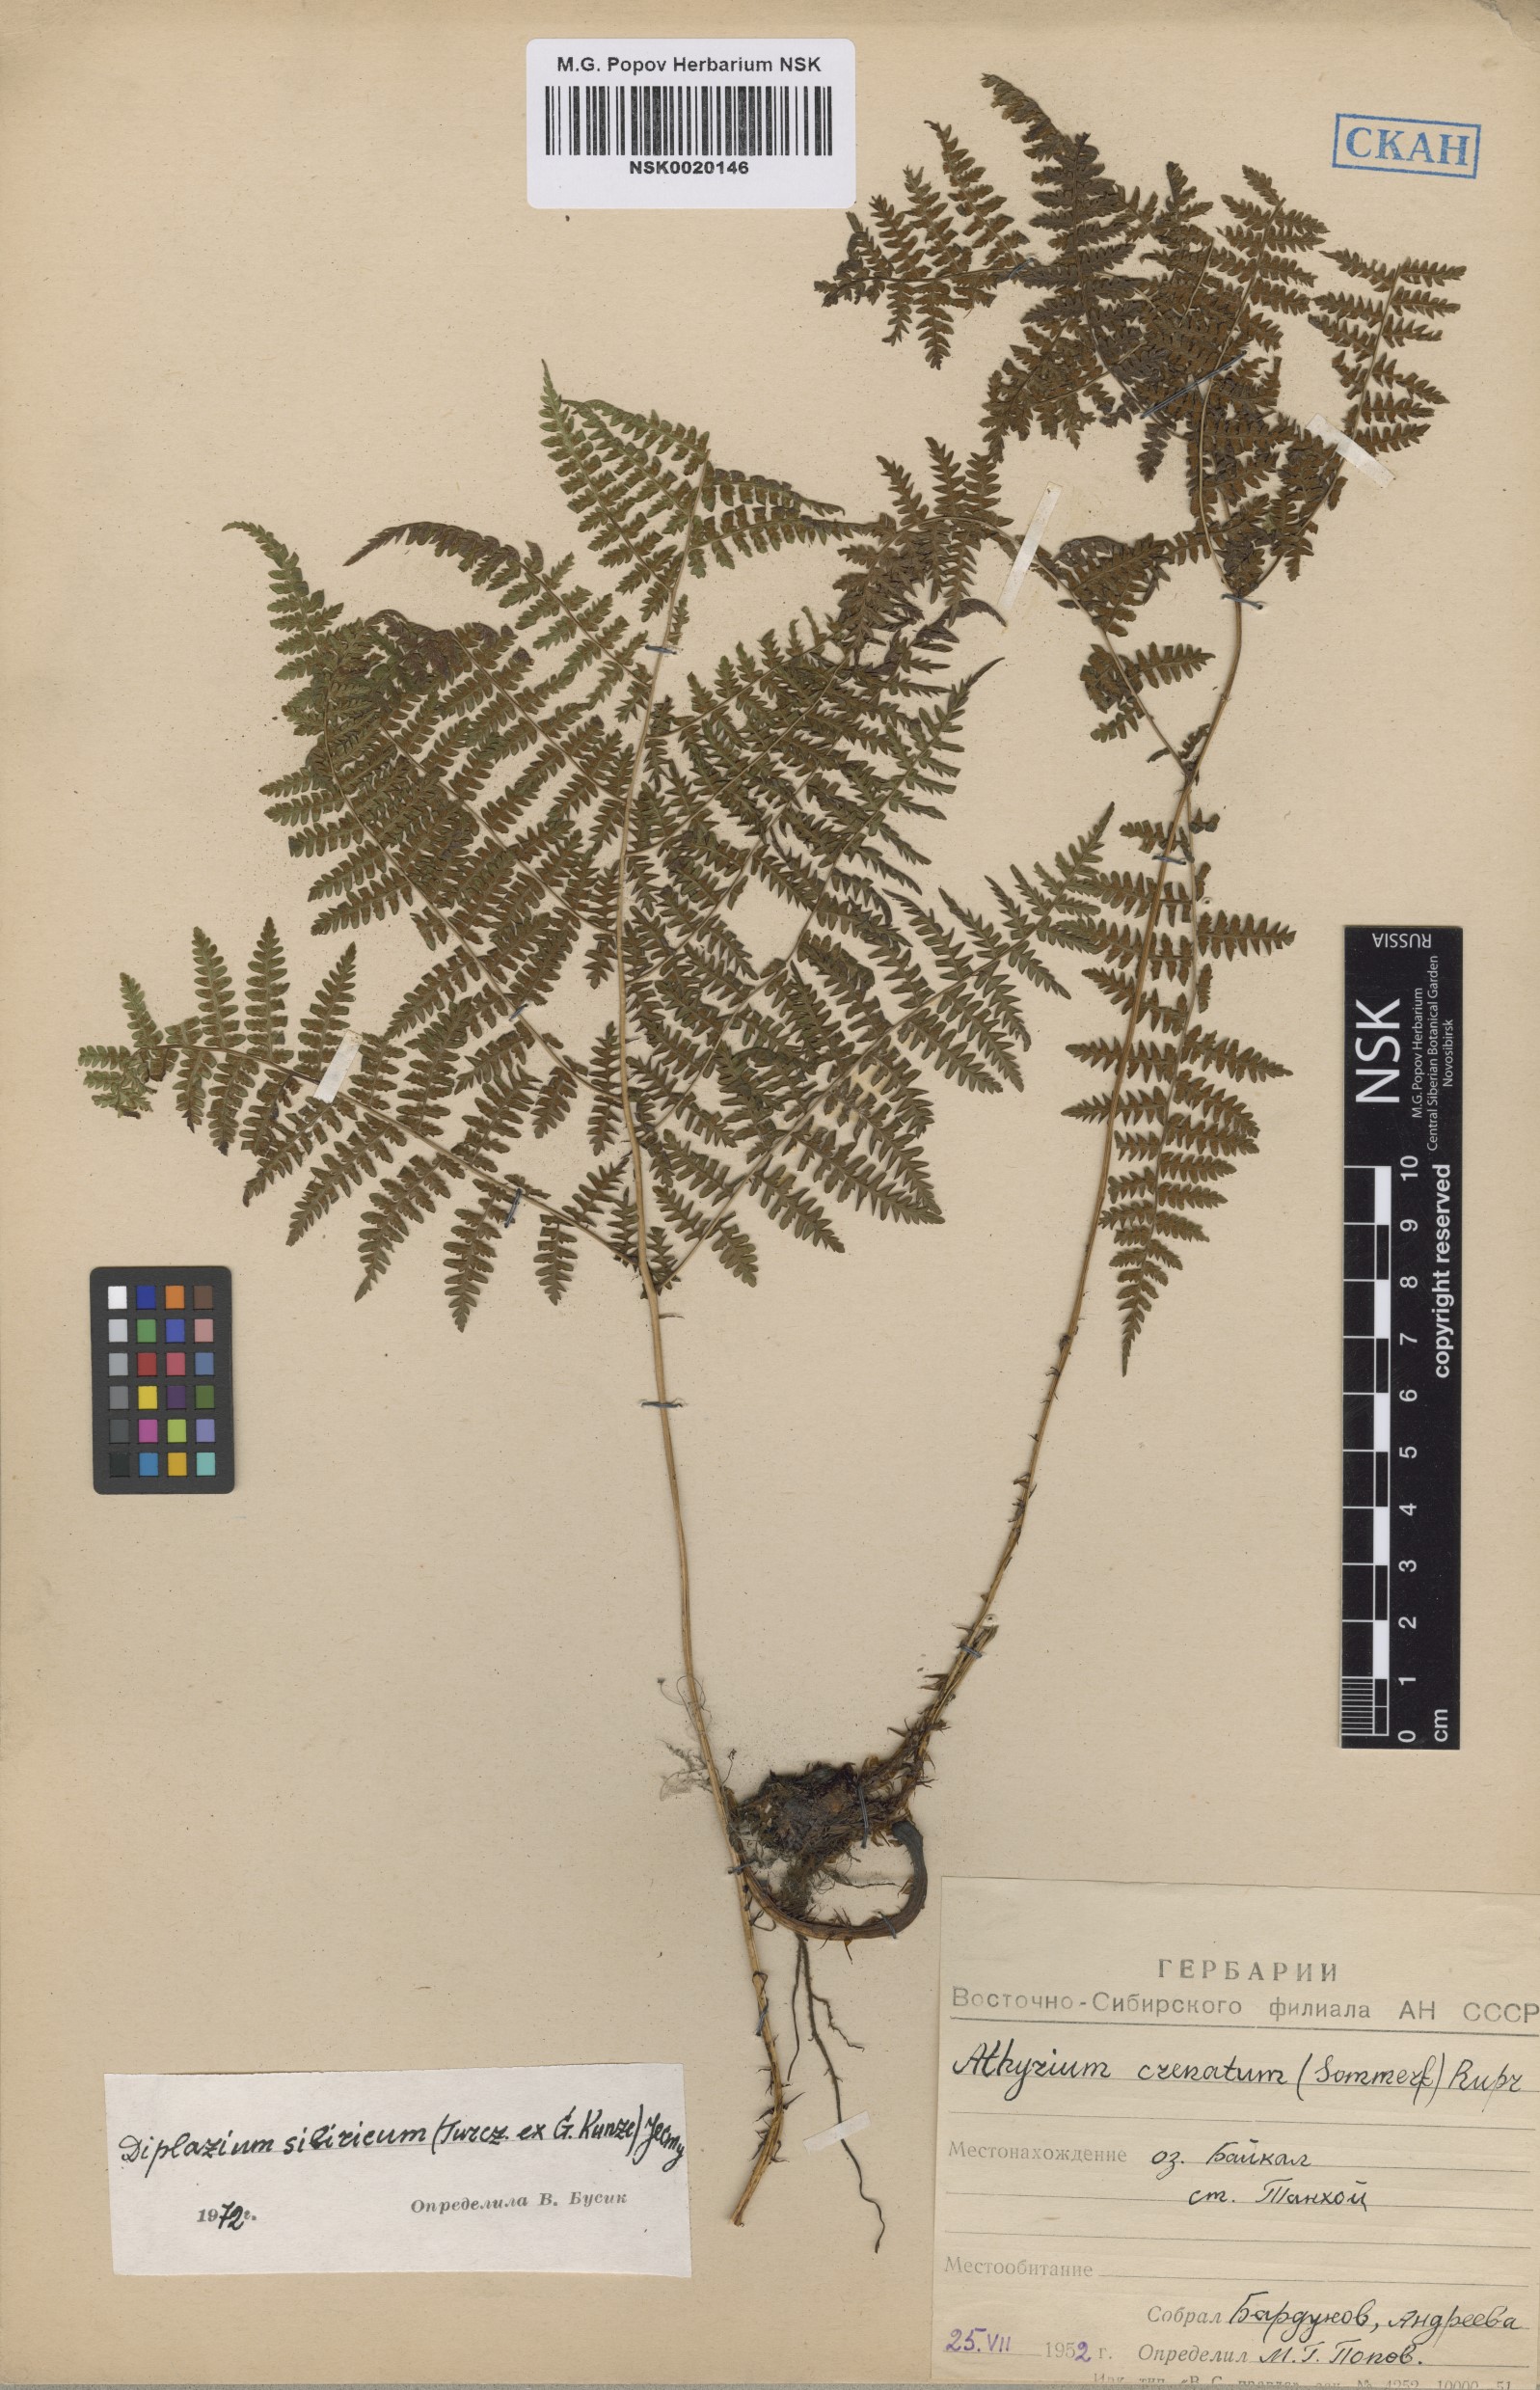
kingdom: Plantae
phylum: Tracheophyta
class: Polypodiopsida
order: Polypodiales
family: Athyriaceae
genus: Diplazium
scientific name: Diplazium sibiricum
